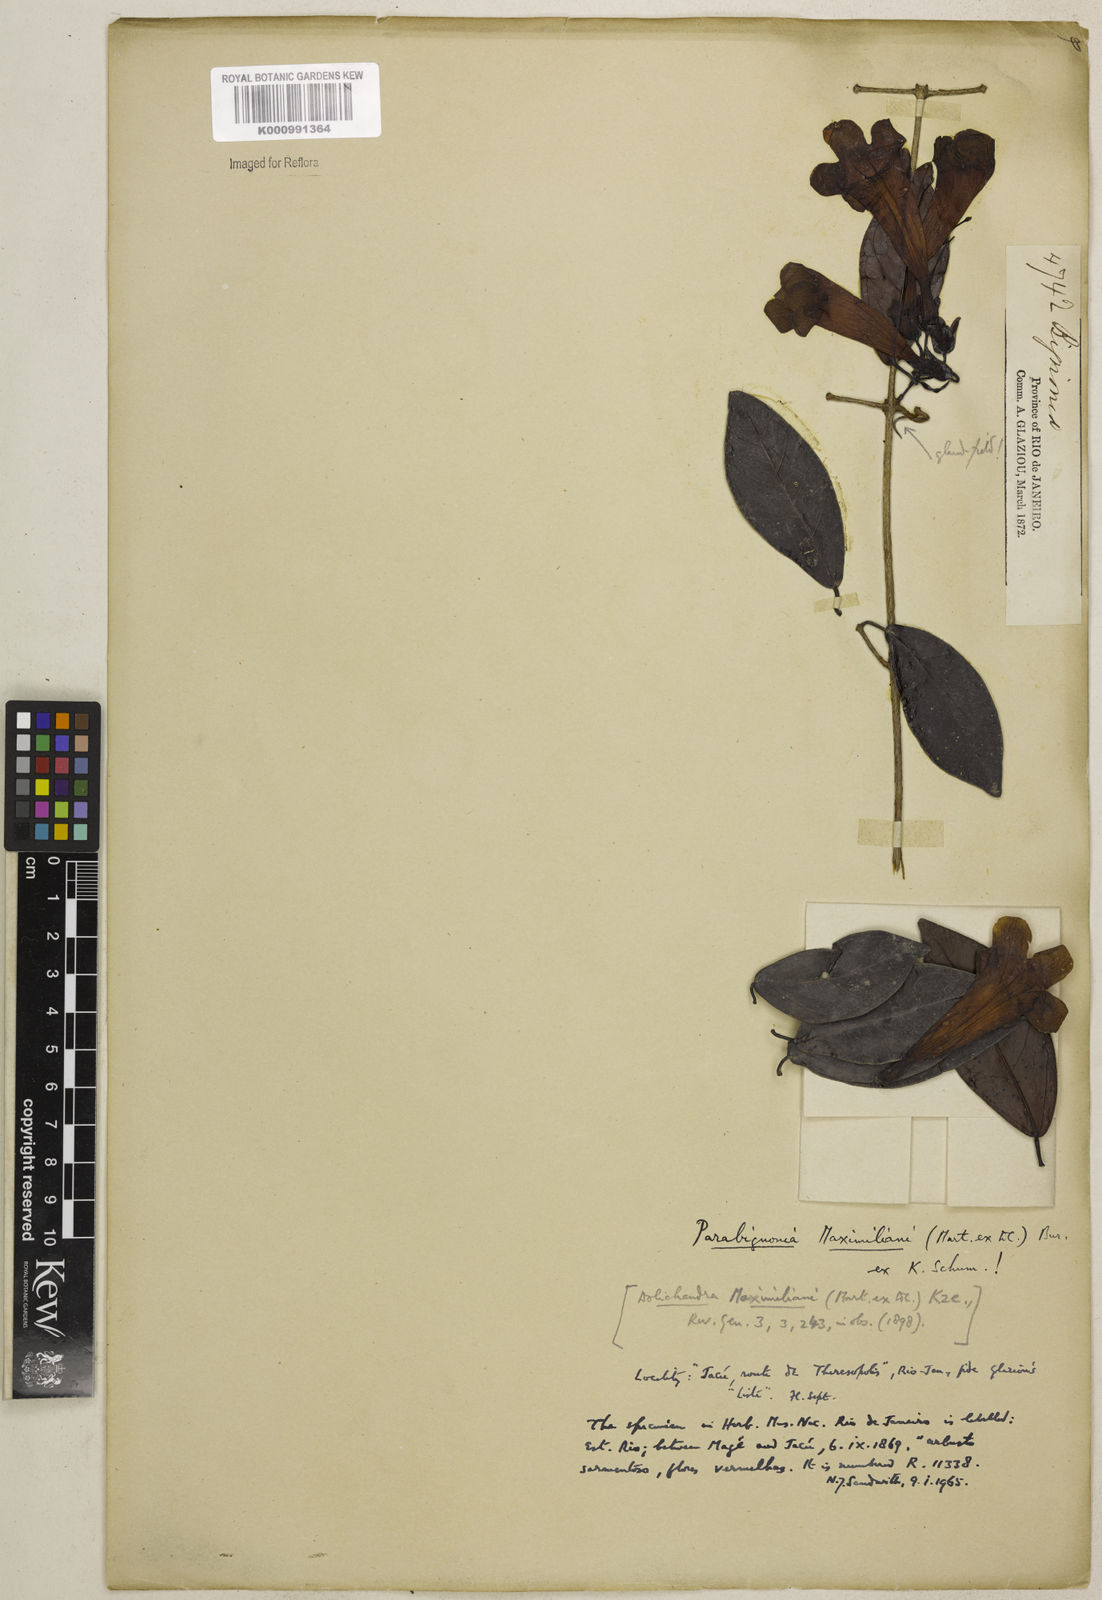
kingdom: Plantae
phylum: Tracheophyta
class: Magnoliopsida
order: Lamiales
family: Bignoniaceae
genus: Adenocalymma
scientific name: Adenocalymma
